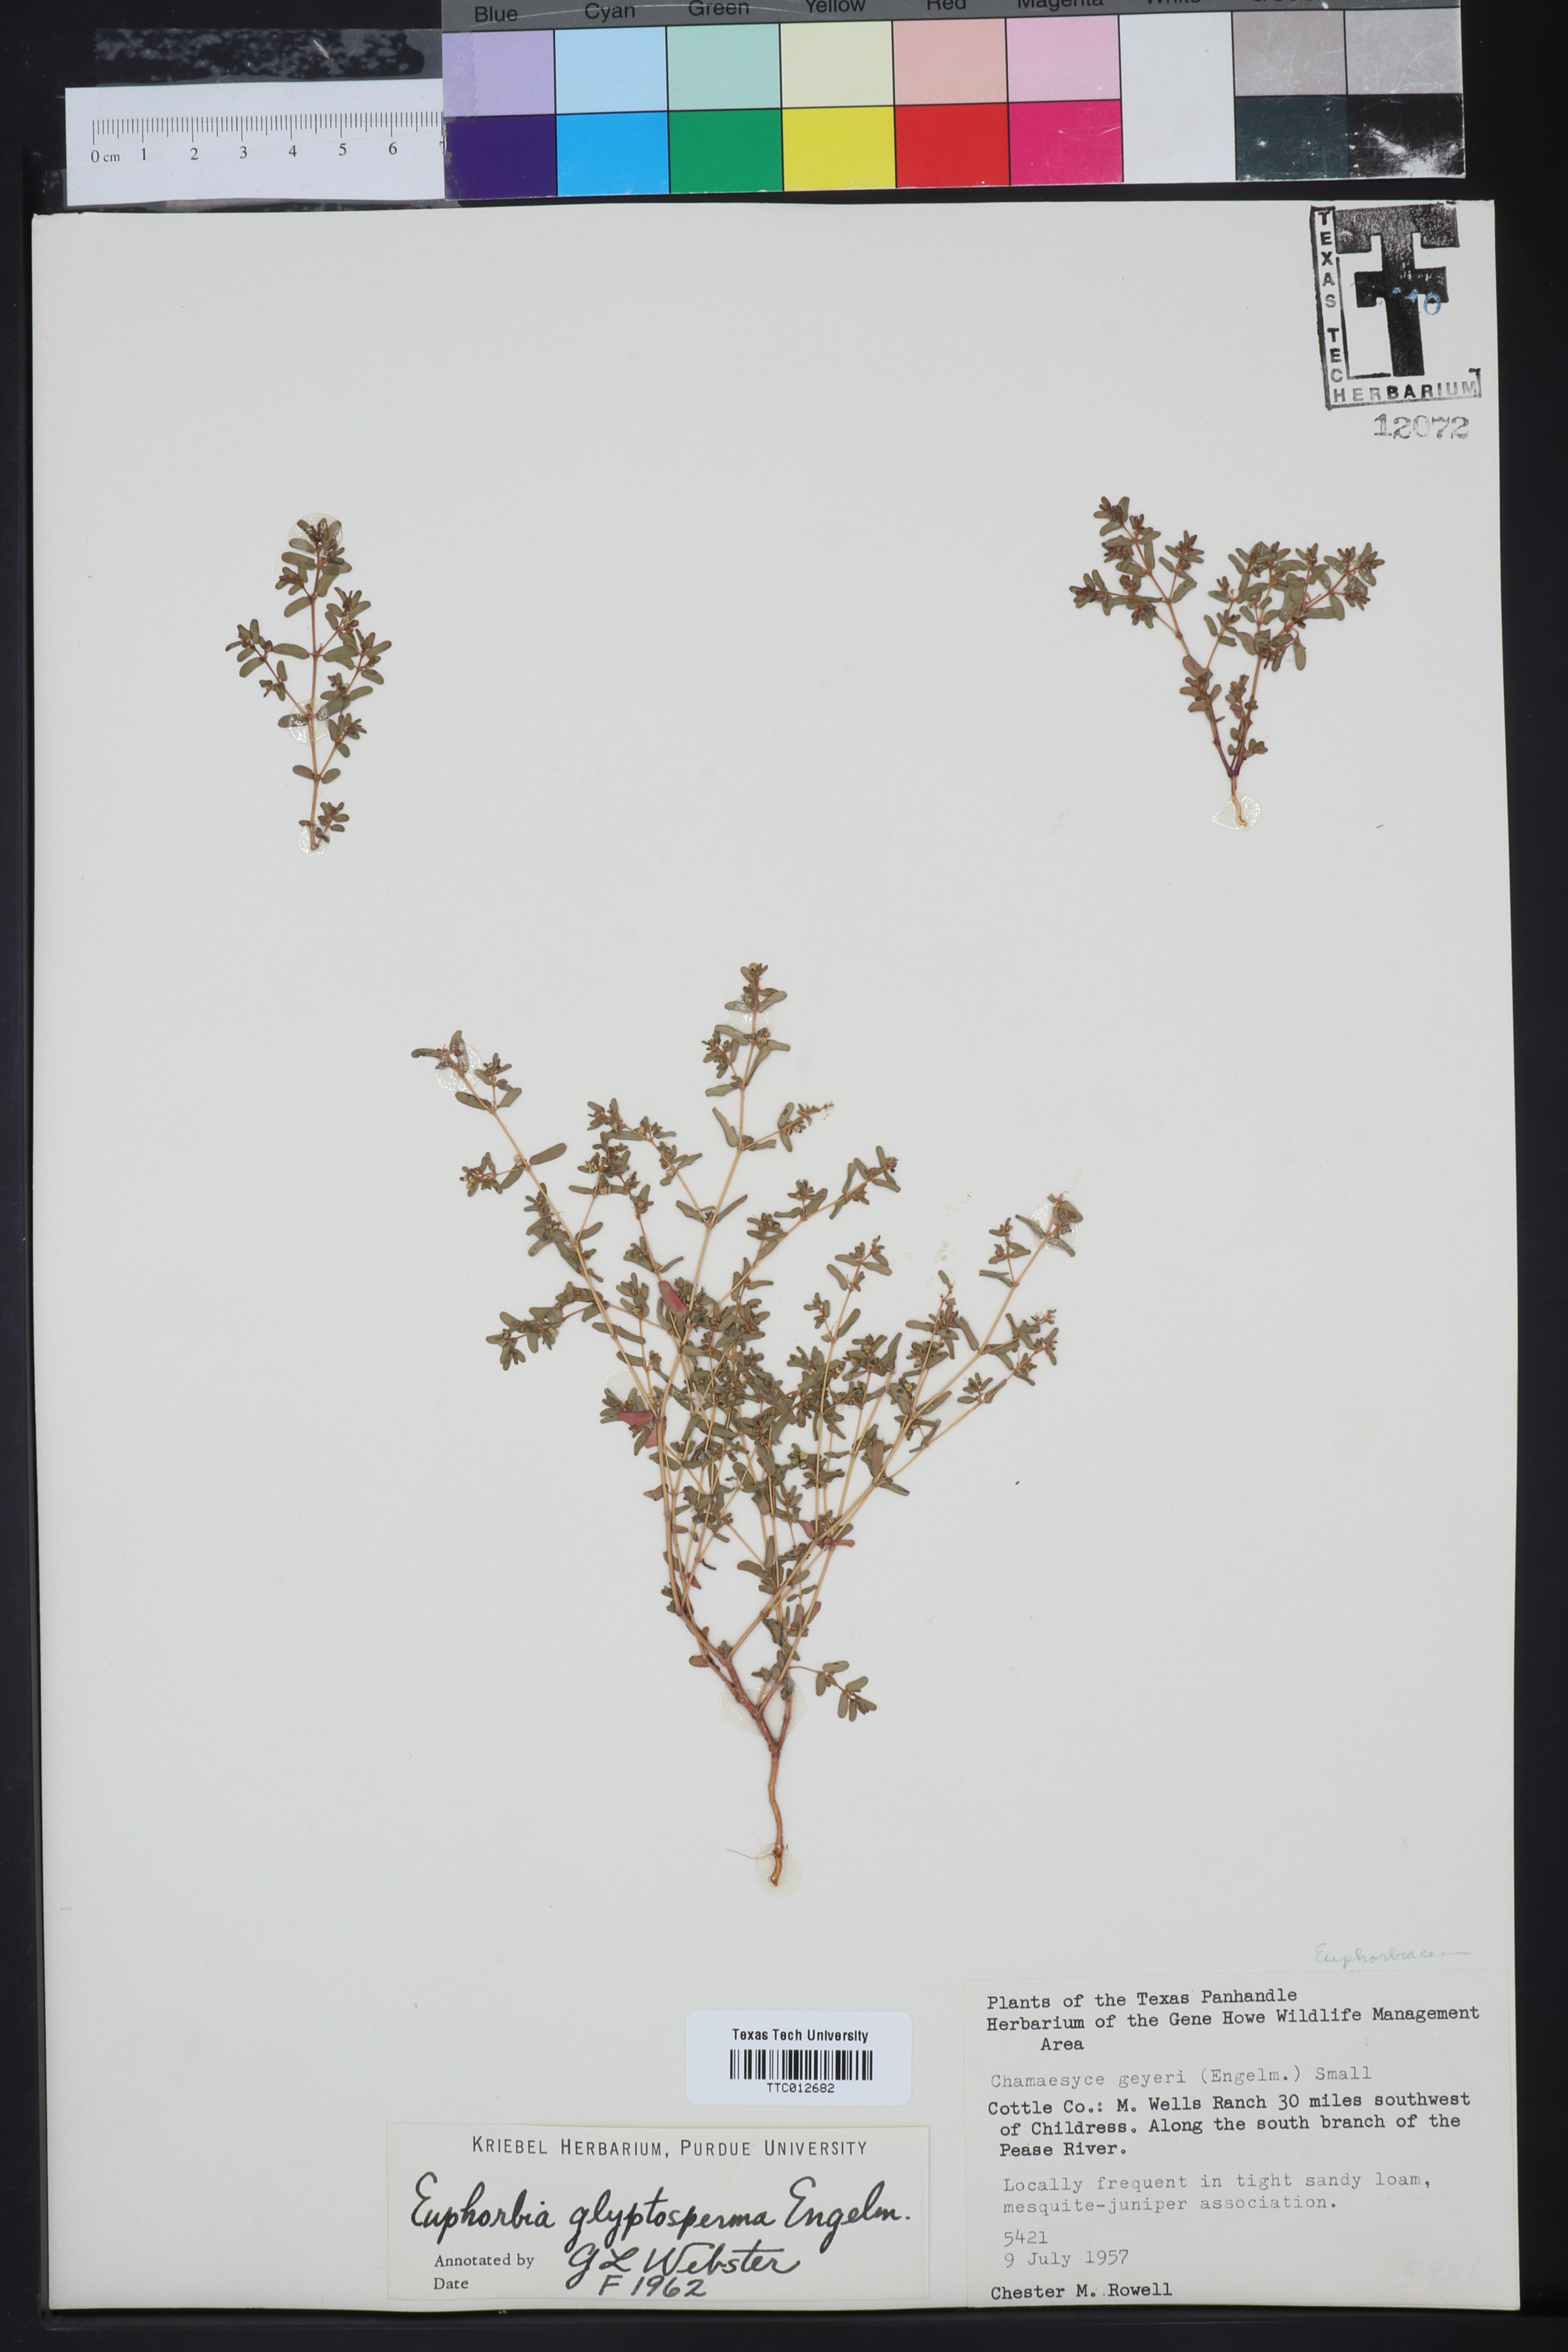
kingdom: Plantae
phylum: Tracheophyta
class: Magnoliopsida
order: Malpighiales
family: Euphorbiaceae
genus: Euphorbia
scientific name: Euphorbia glyptosperma
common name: Corrugate-seeded spurge
